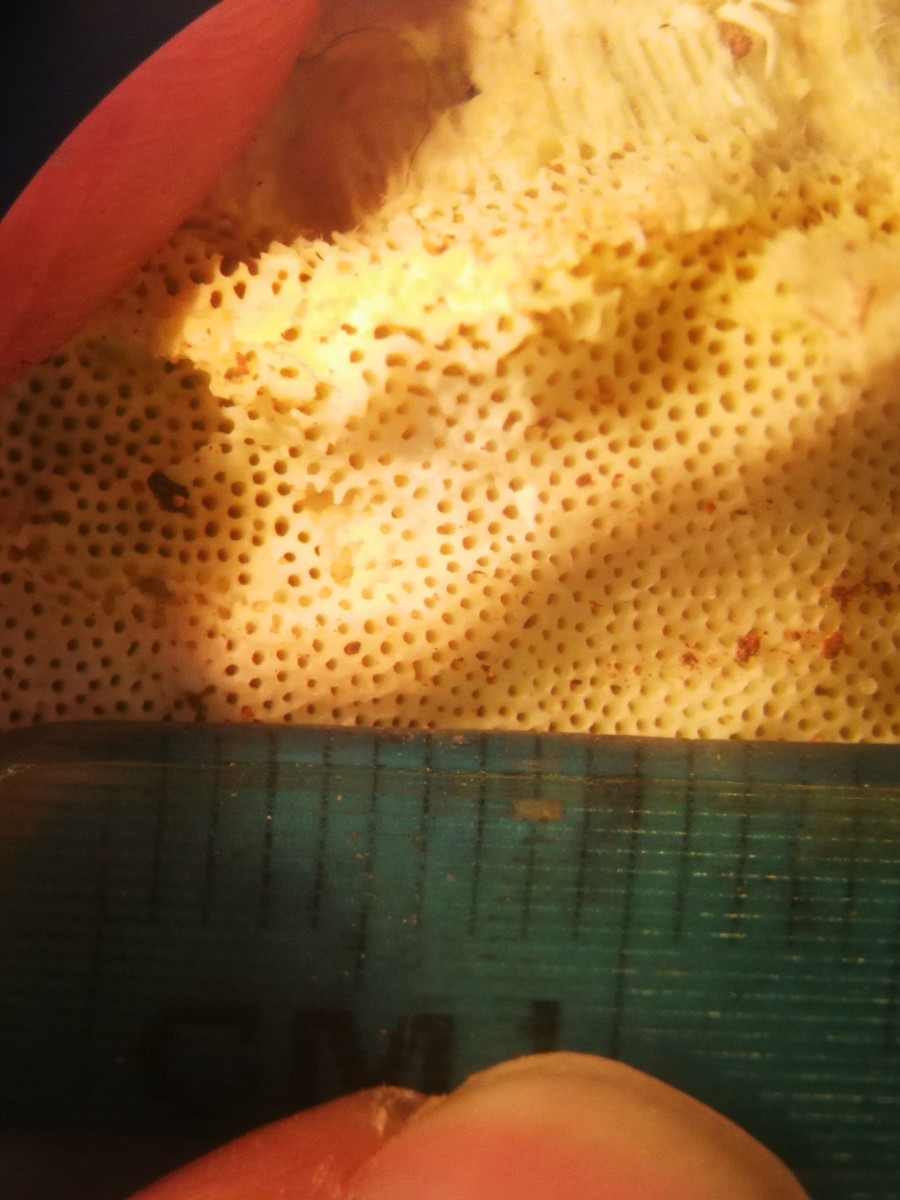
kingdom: Fungi
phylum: Basidiomycota
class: Agaricomycetes
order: Polyporales
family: Fomitopsidaceae
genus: Fomitopsis
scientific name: Fomitopsis pinicola
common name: randbæltet hovporesvamp
